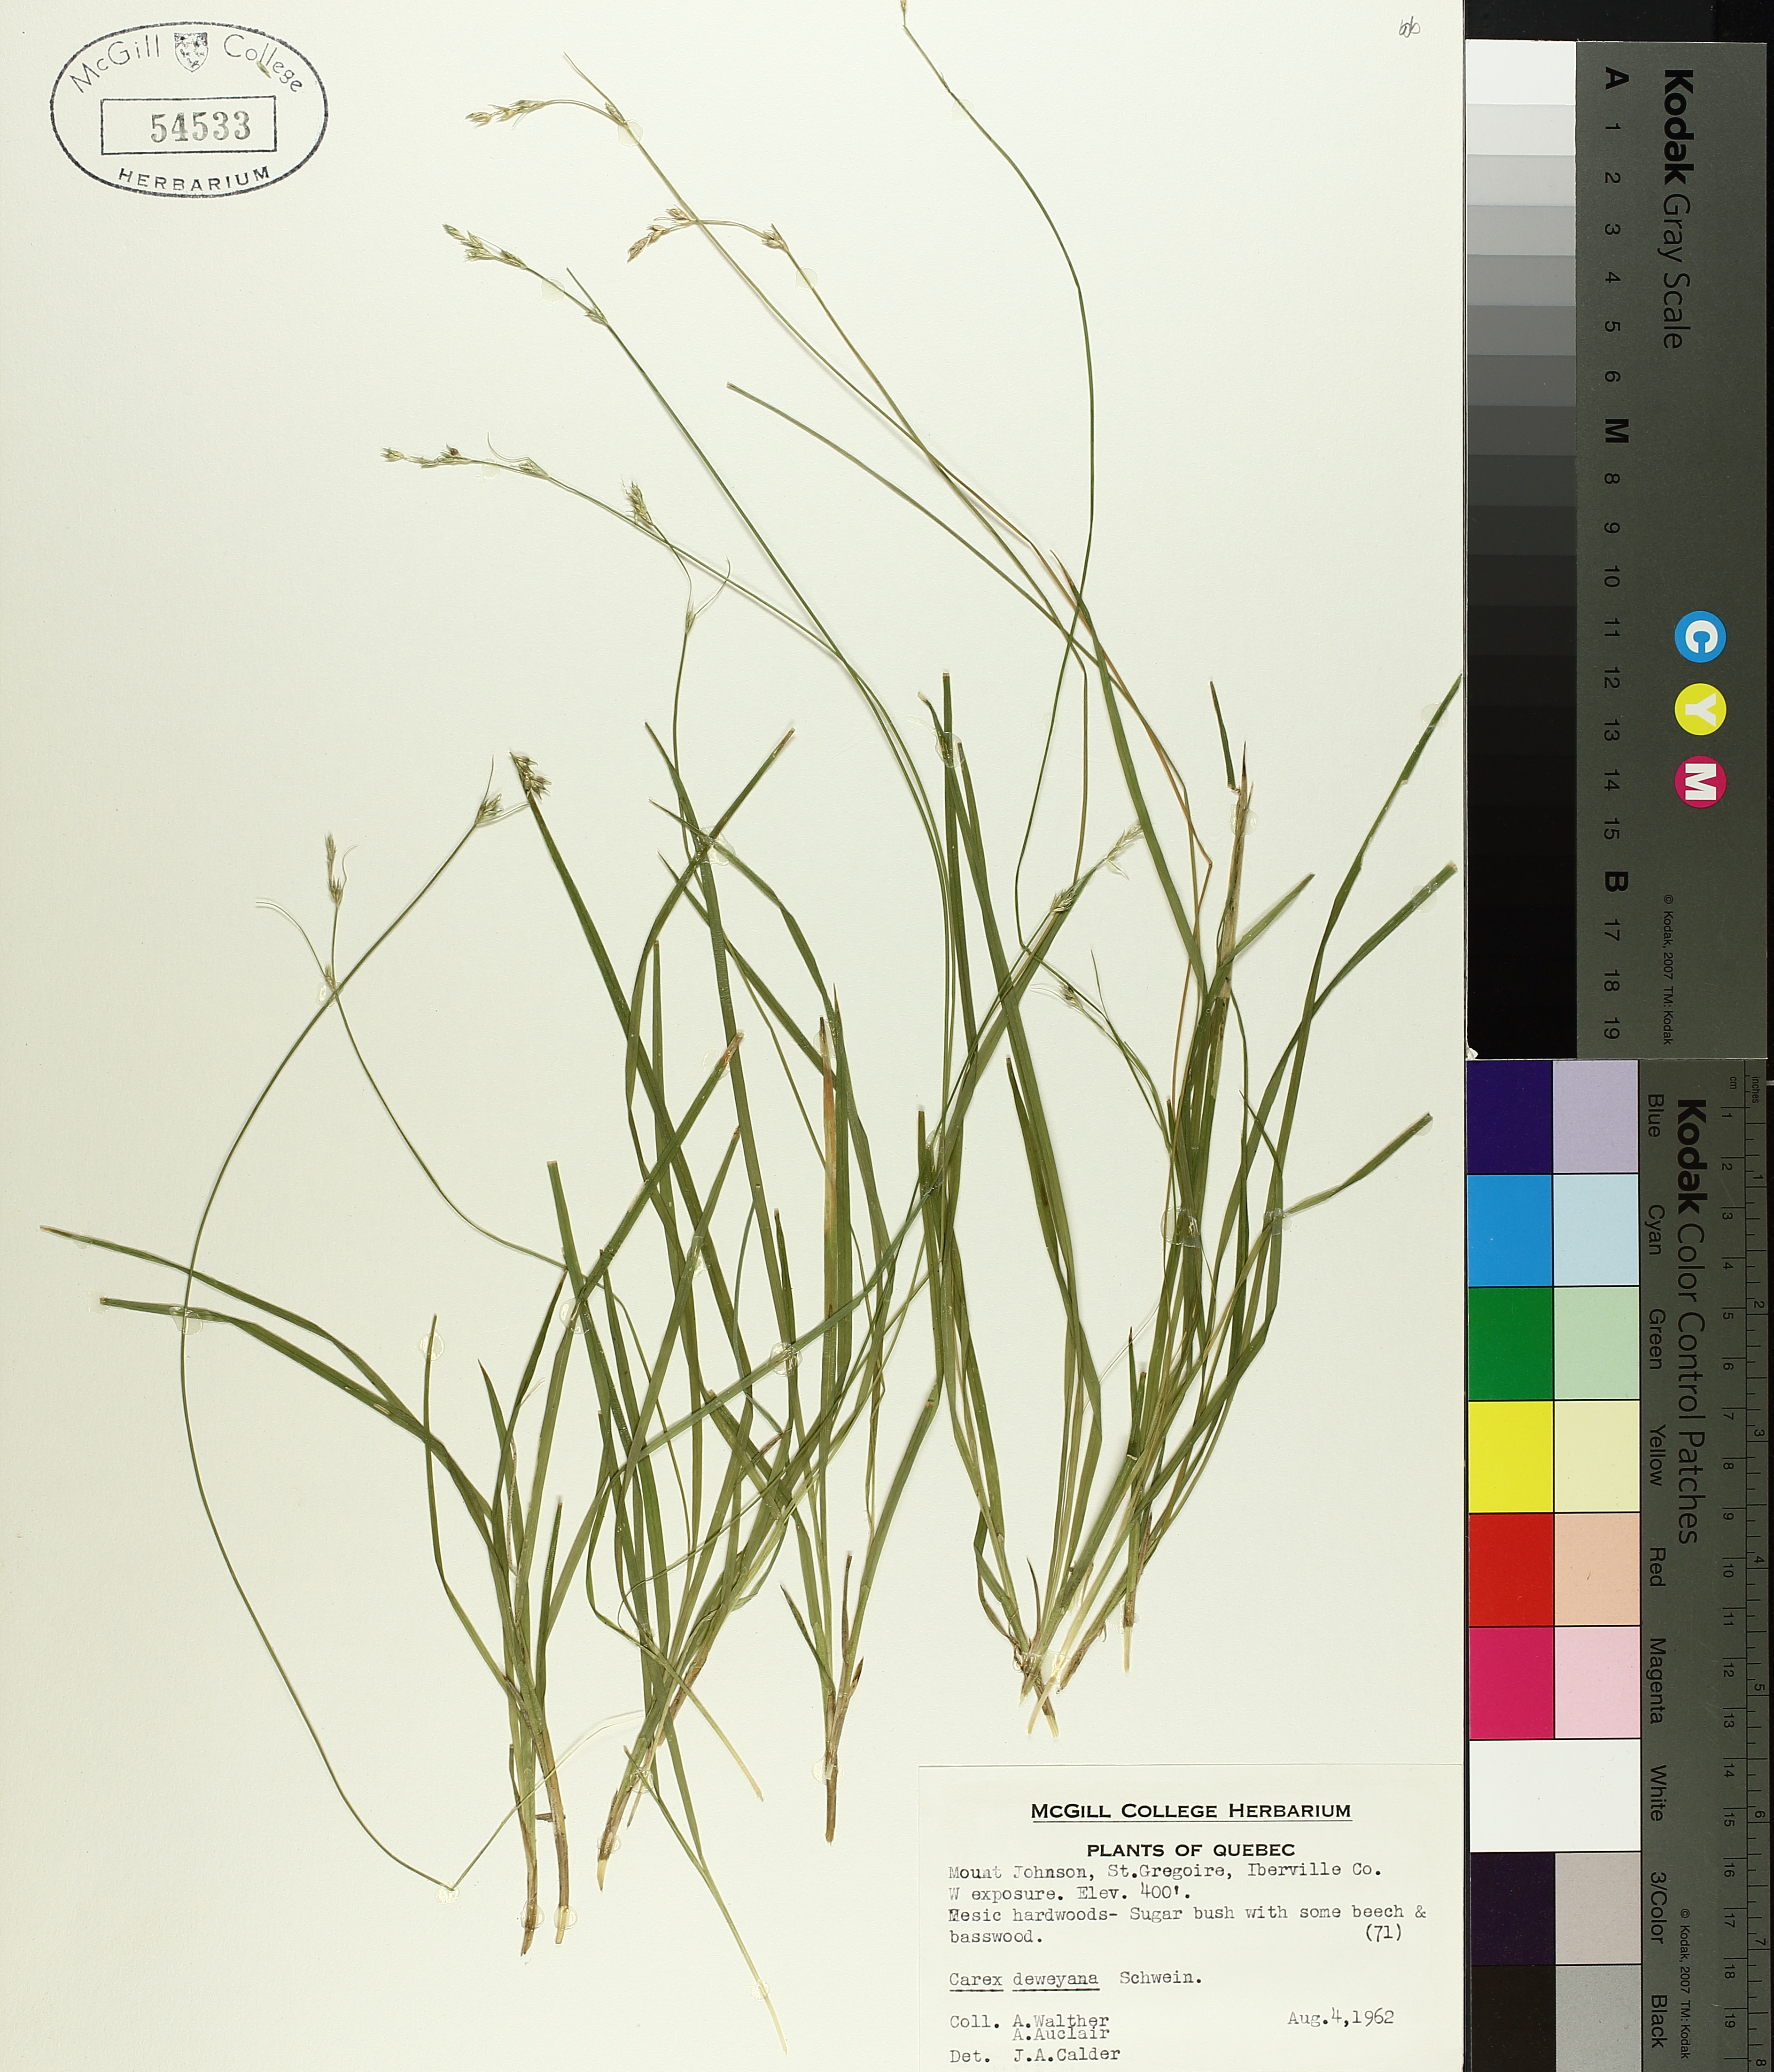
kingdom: Plantae
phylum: Tracheophyta
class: Liliopsida
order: Poales
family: Cyperaceae
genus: Carex
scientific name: Carex deweyana
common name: Dewey's sedge
